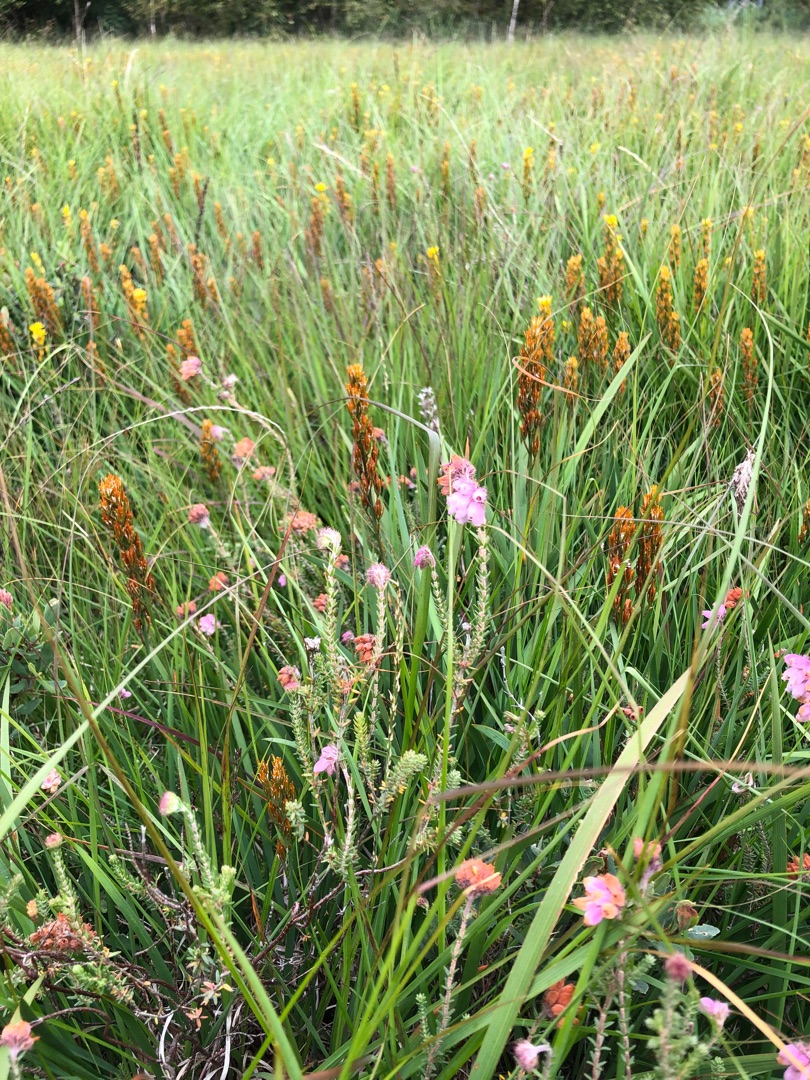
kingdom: Plantae
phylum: Tracheophyta
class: Magnoliopsida
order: Ericales
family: Ericaceae
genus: Erica
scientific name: Erica tetralix
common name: Klokkelyng
